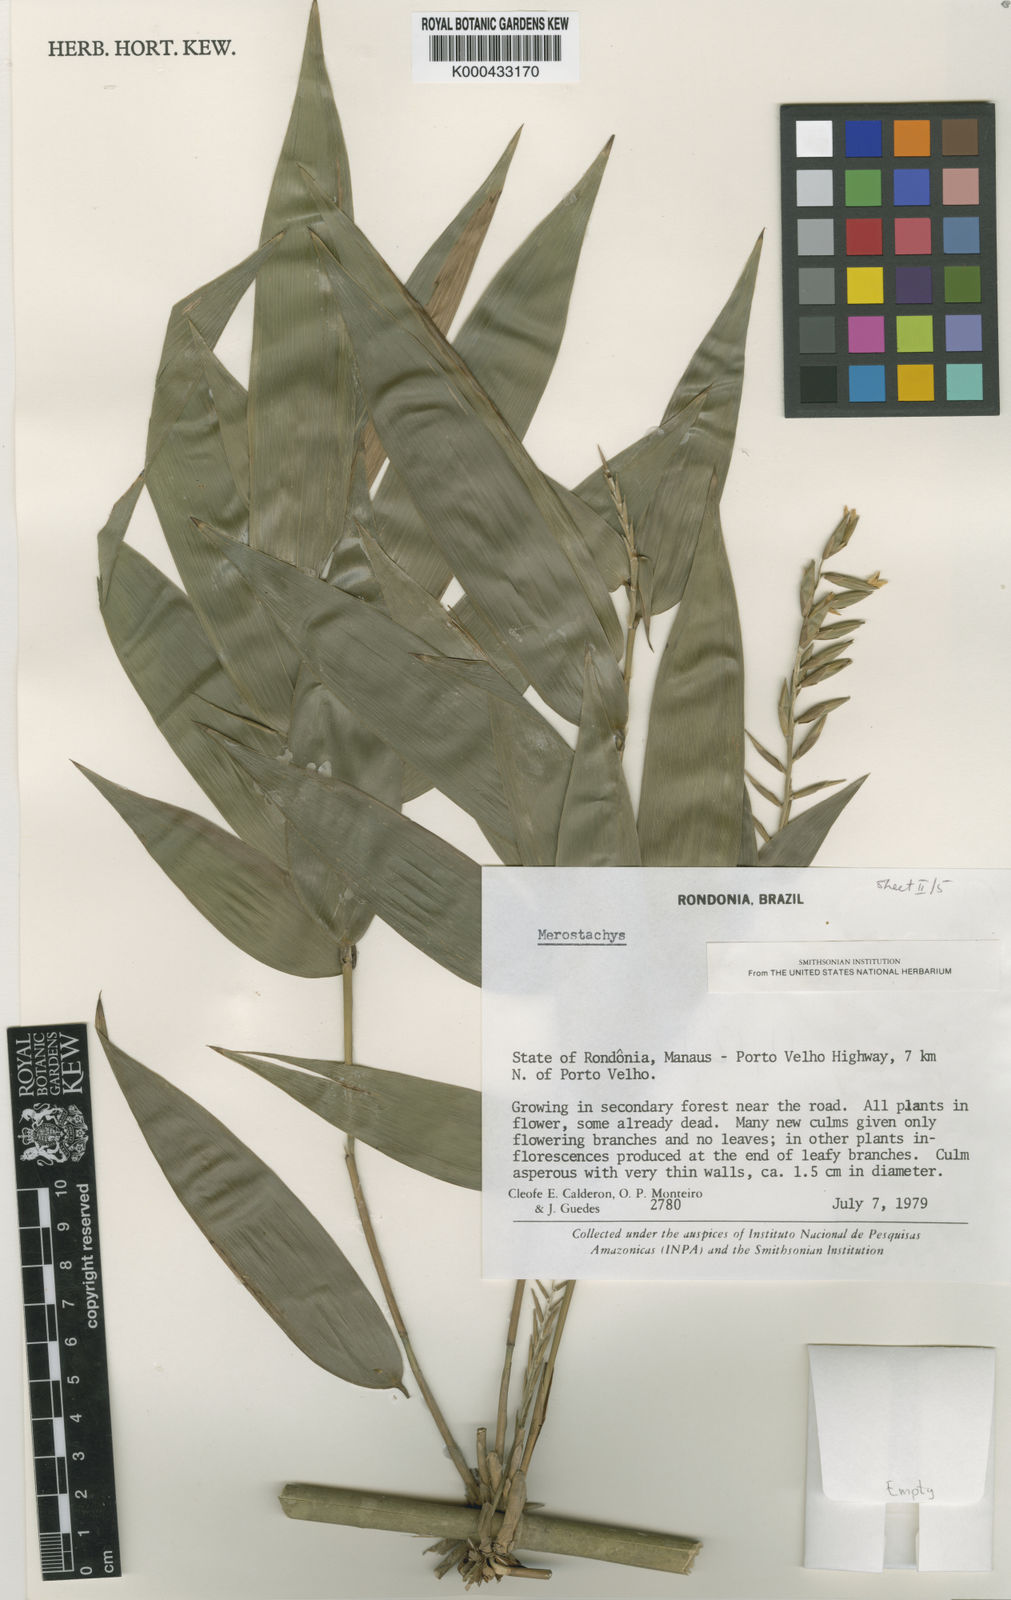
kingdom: Plantae
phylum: Tracheophyta
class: Liliopsida
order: Poales
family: Poaceae
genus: Merostachys
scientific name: Merostachys
